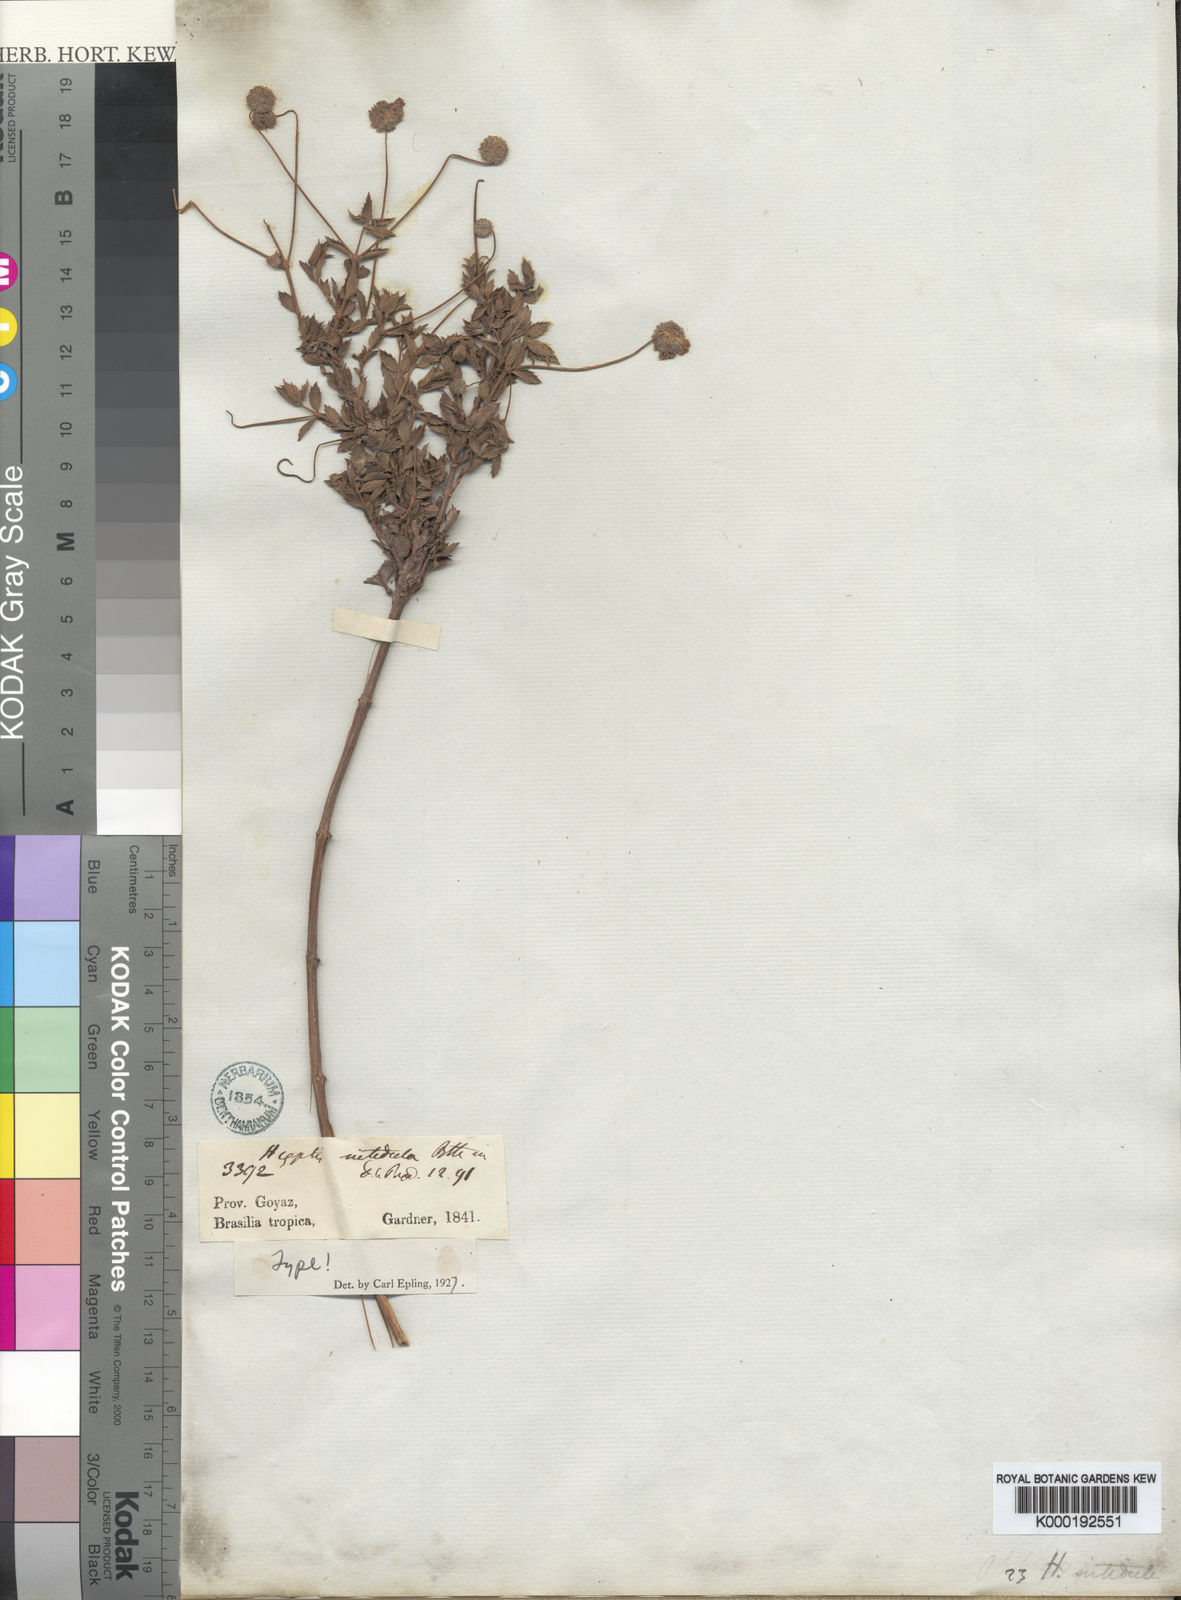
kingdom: Plantae
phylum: Tracheophyta
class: Magnoliopsida
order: Lamiales
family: Lamiaceae
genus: Cyanocephalus
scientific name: Cyanocephalus nitidulus
